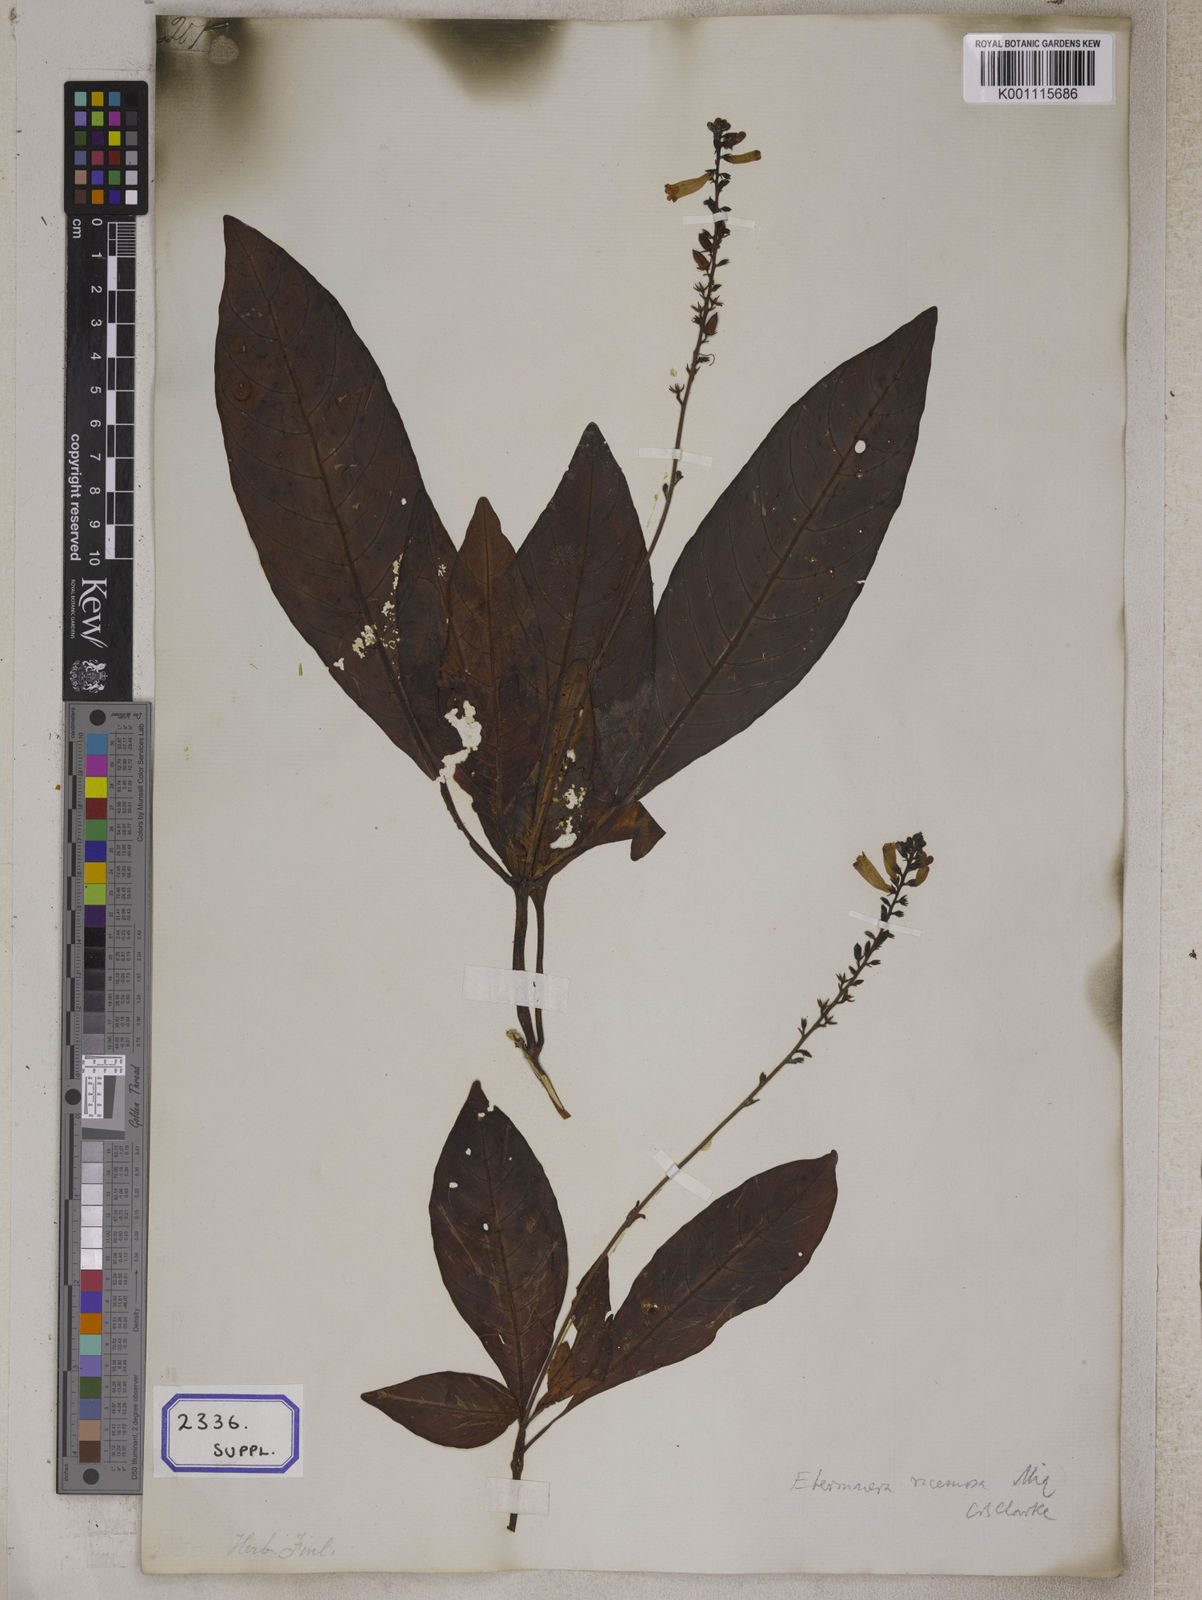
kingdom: Plantae
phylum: Tracheophyta
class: Magnoliopsida
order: Lamiales
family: Acanthaceae
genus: Staurogyne
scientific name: Staurogyne racemosa
